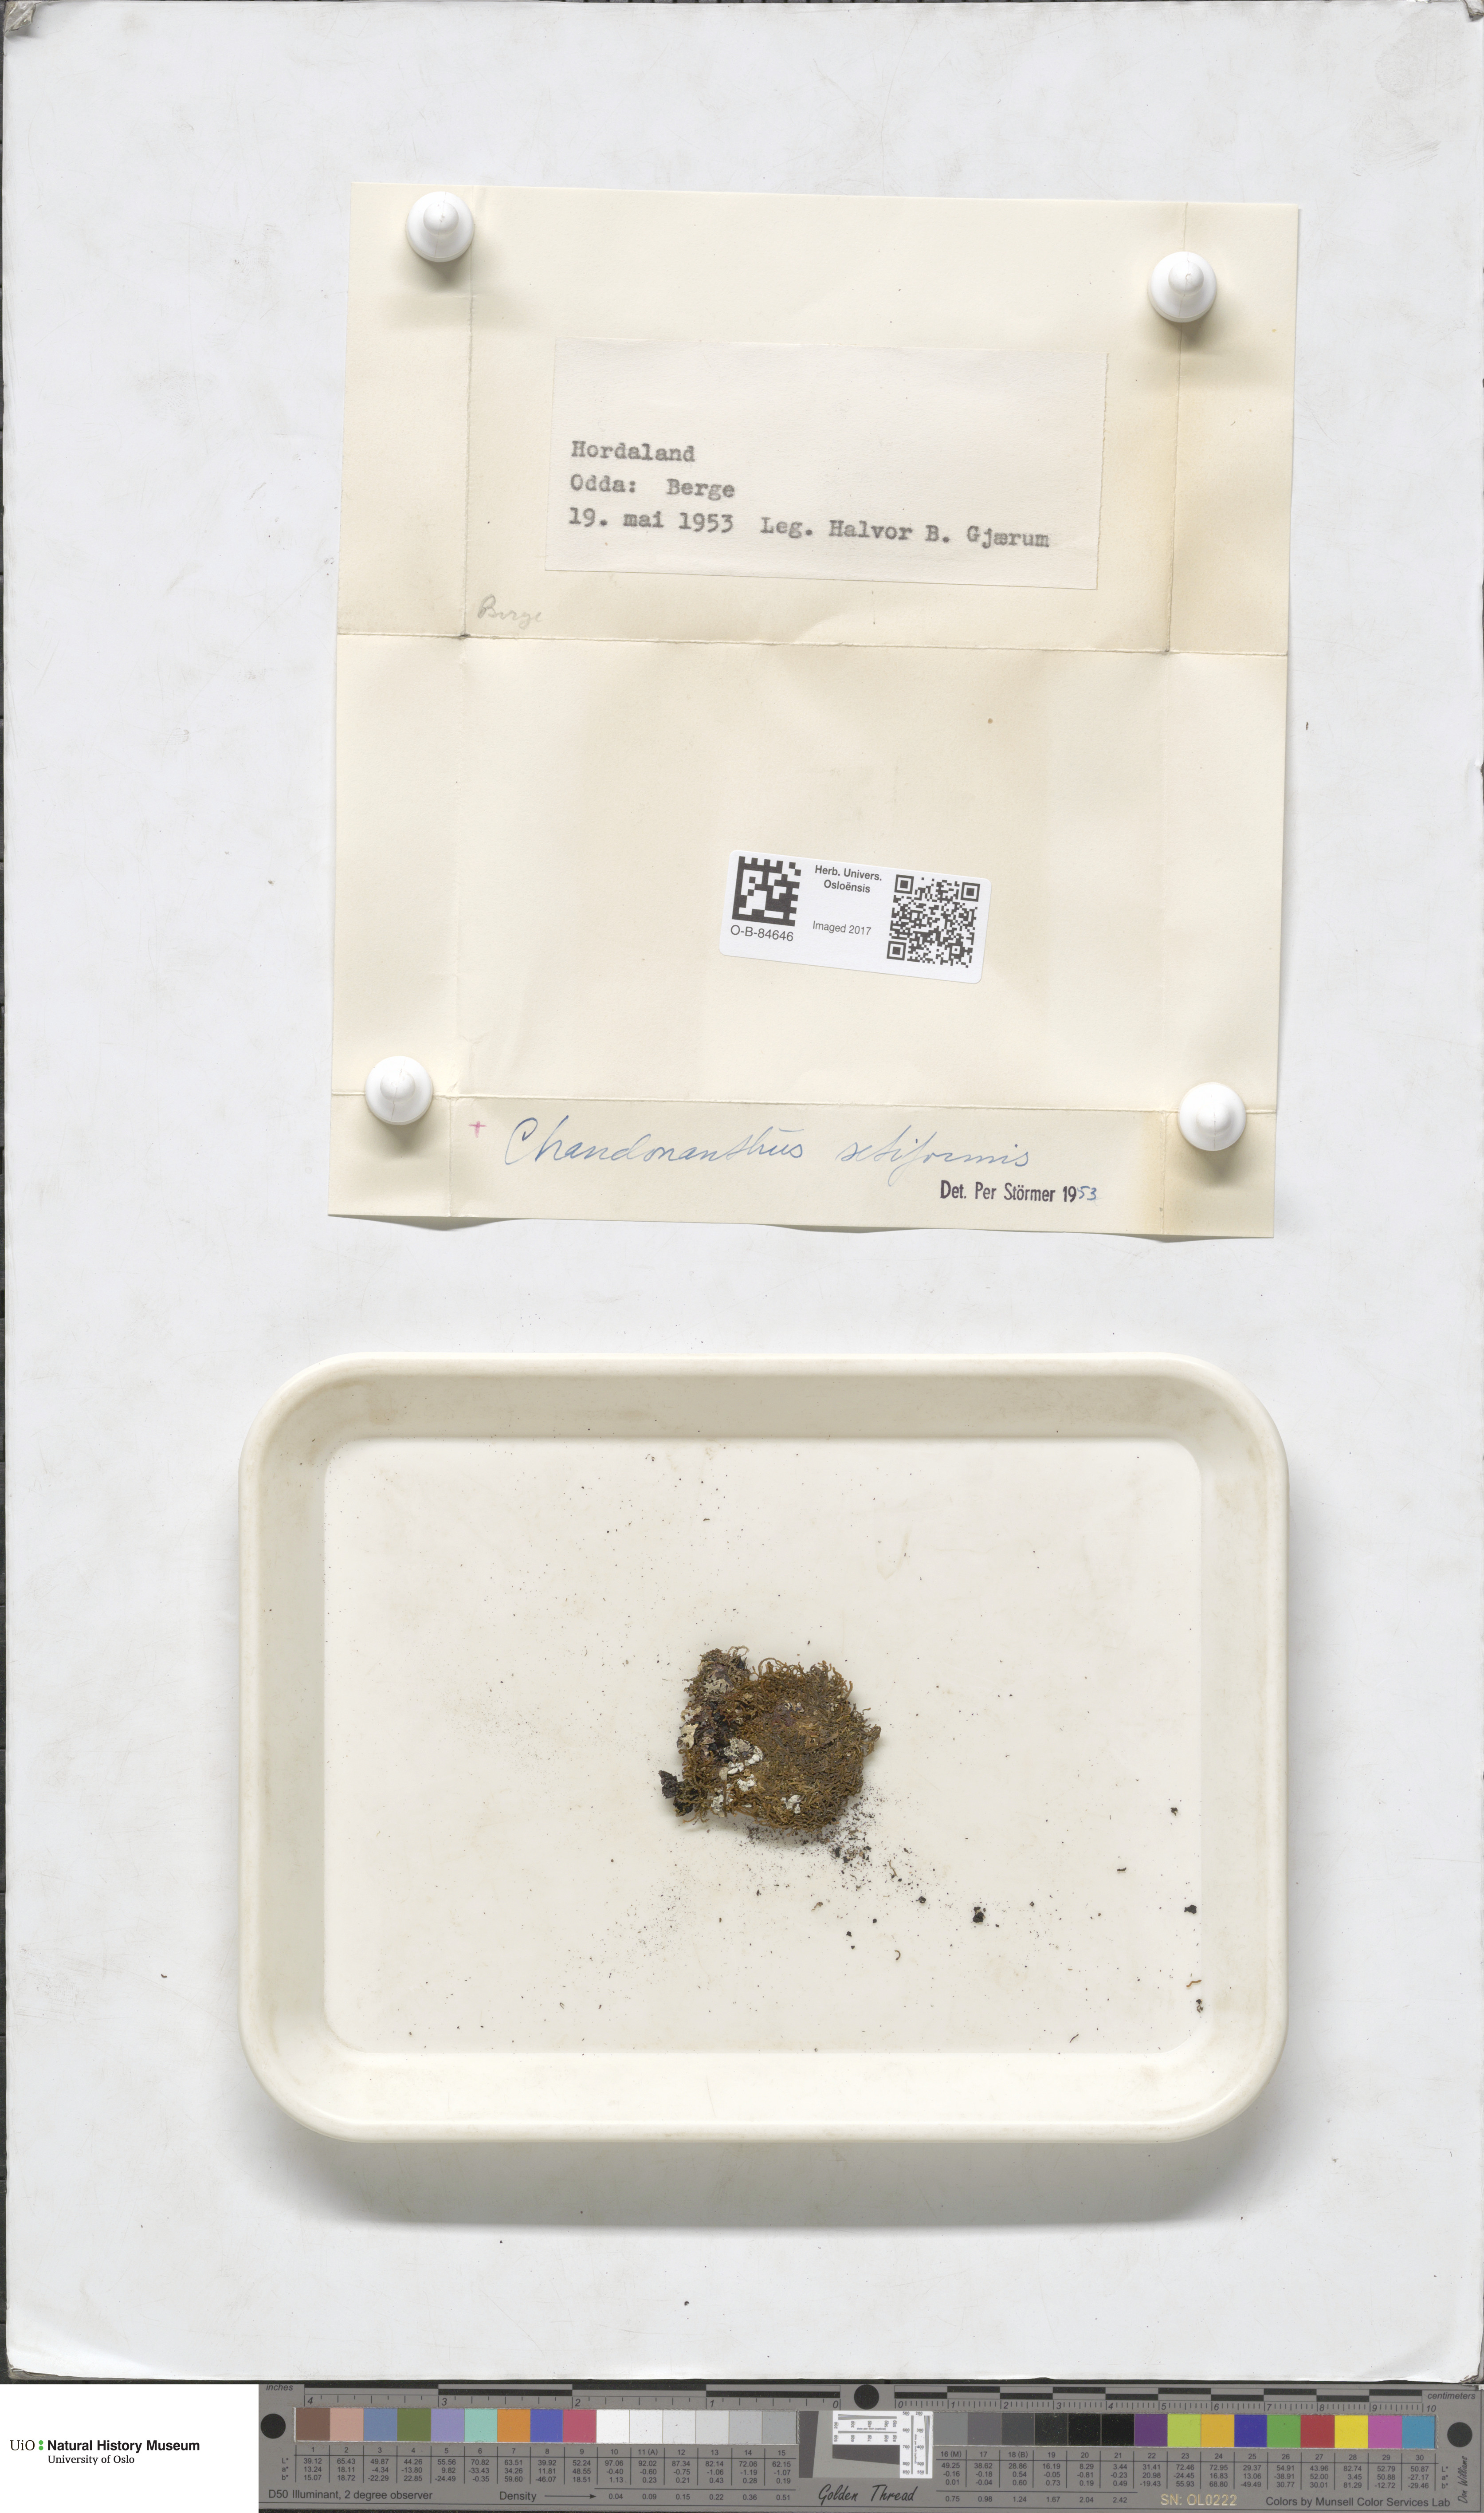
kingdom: Plantae
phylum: Marchantiophyta
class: Jungermanniopsida
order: Jungermanniales
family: Anastrophyllaceae
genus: Tetralophozia
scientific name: Tetralophozia setiformis
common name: Monster pawwort
